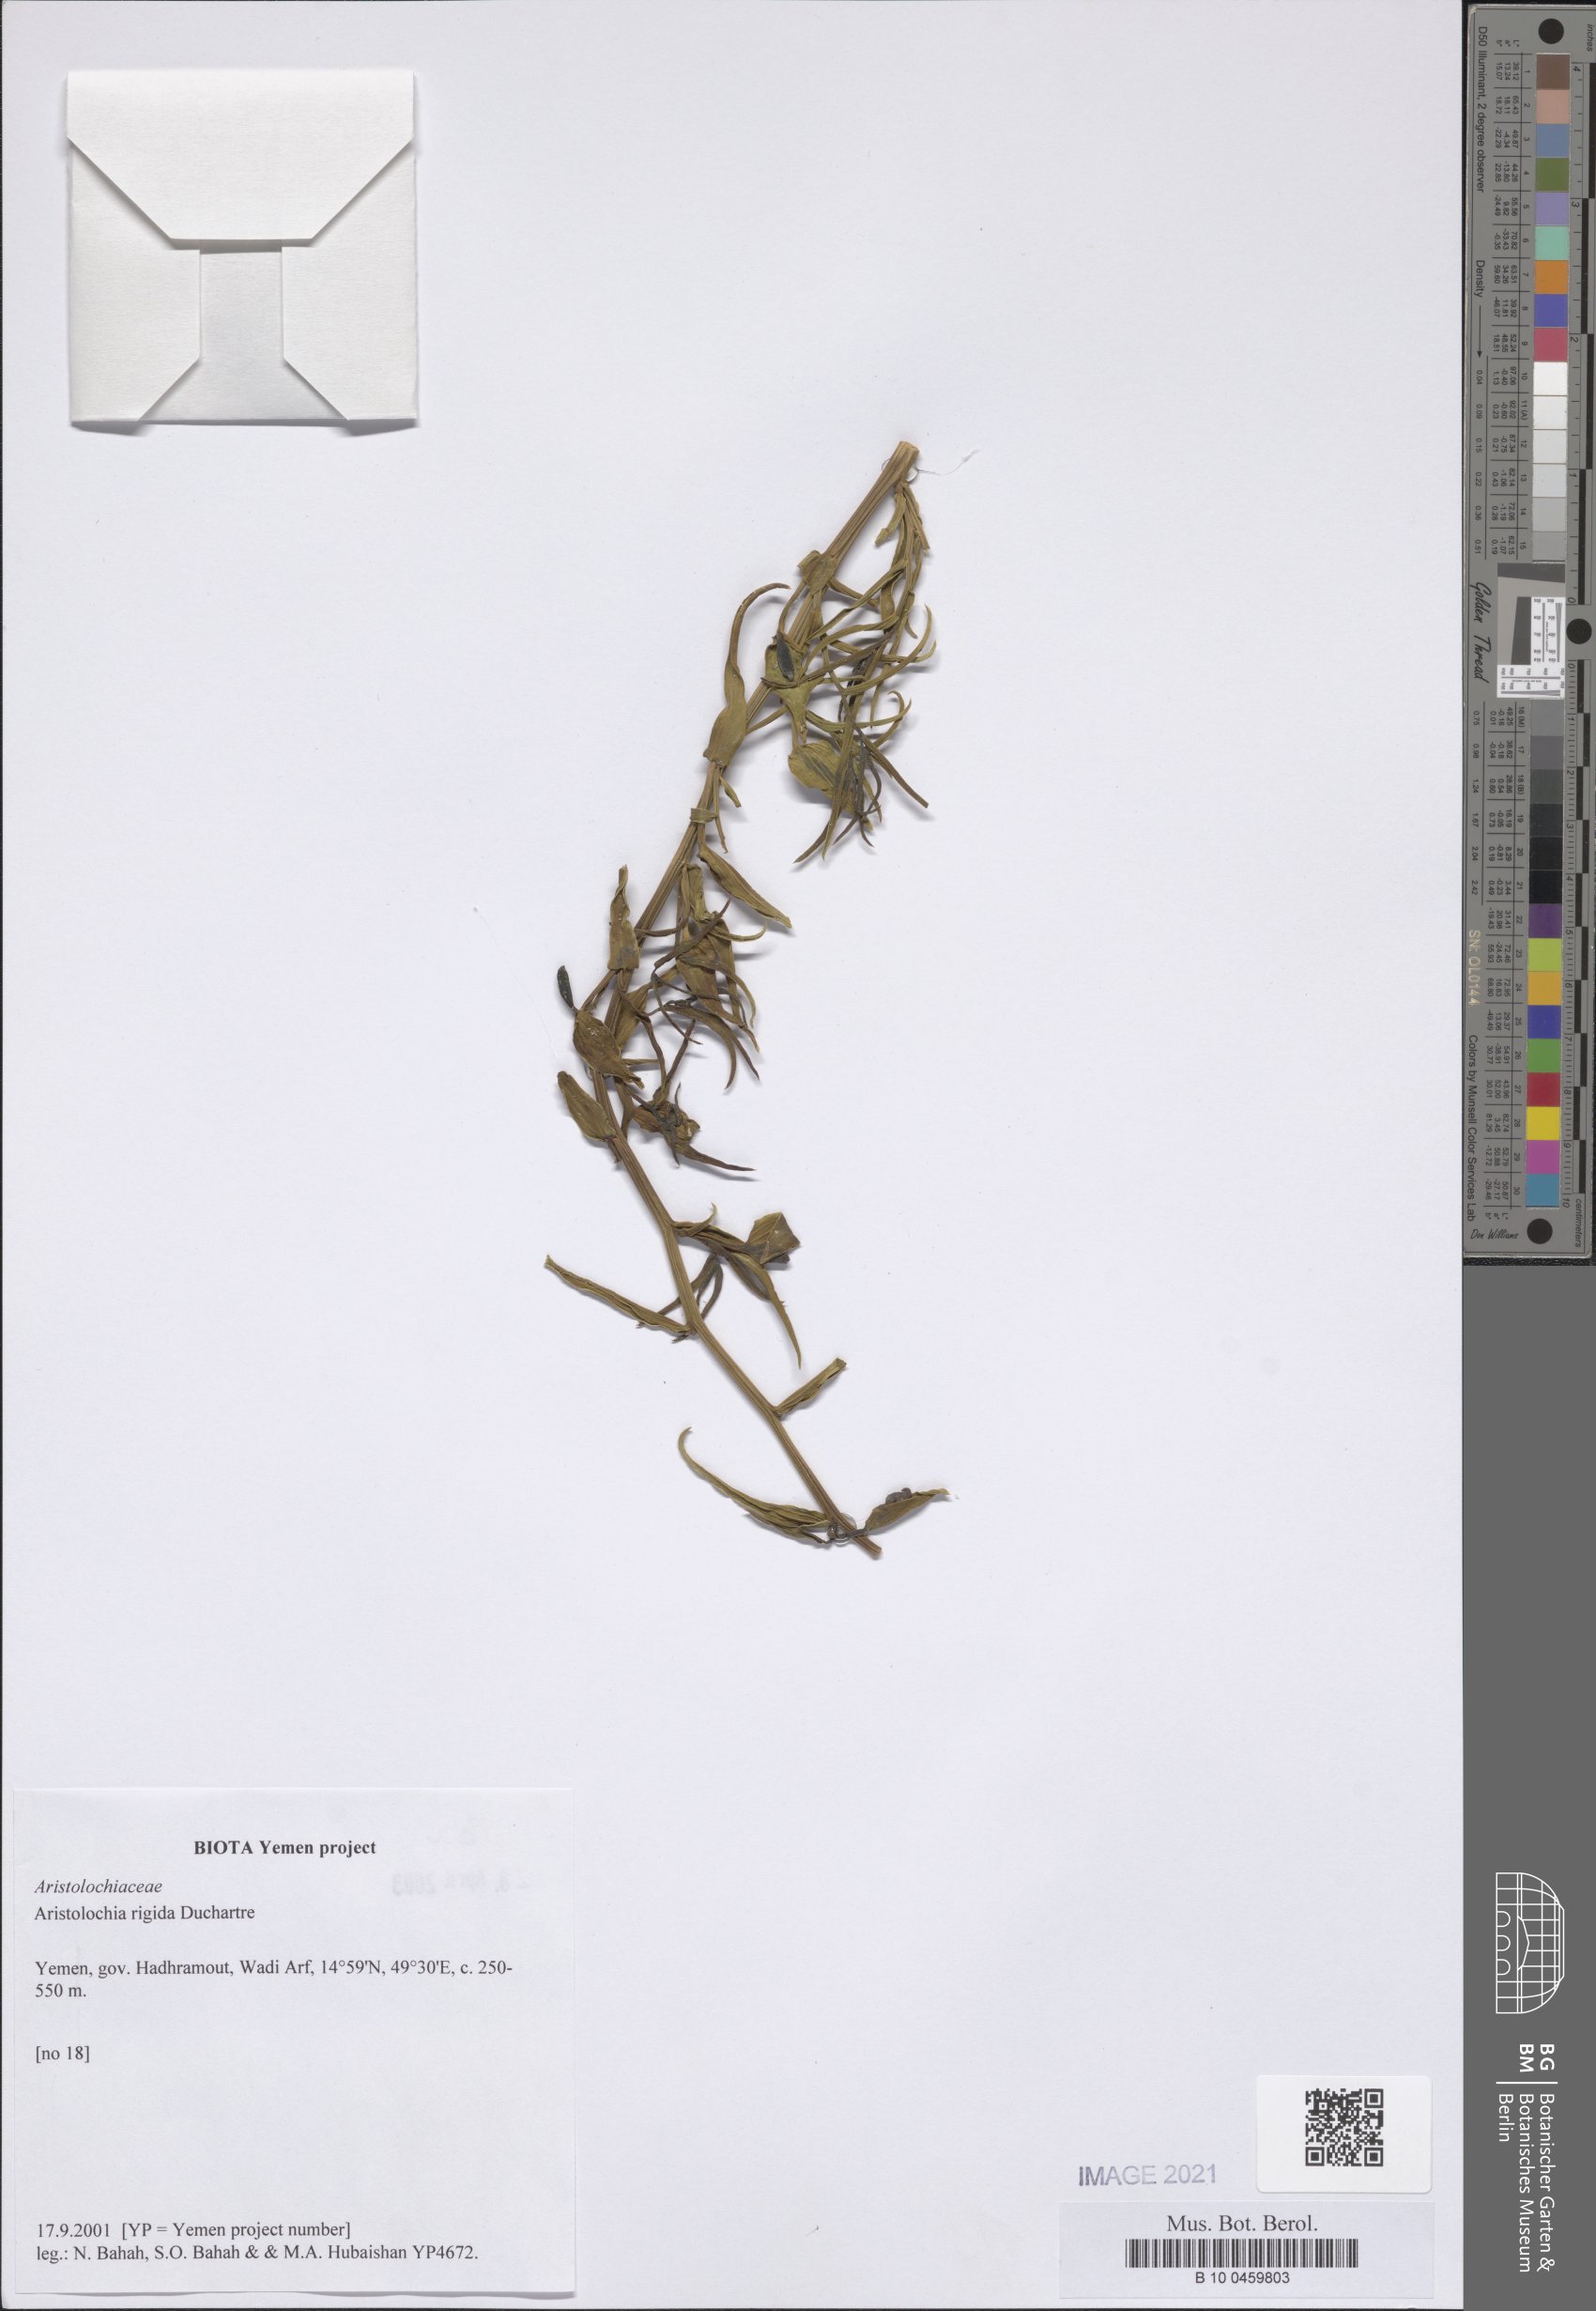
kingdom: Plantae
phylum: Tracheophyta
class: Magnoliopsida
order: Piperales
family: Aristolochiaceae
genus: Aristolochia
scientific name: Aristolochia rigida
